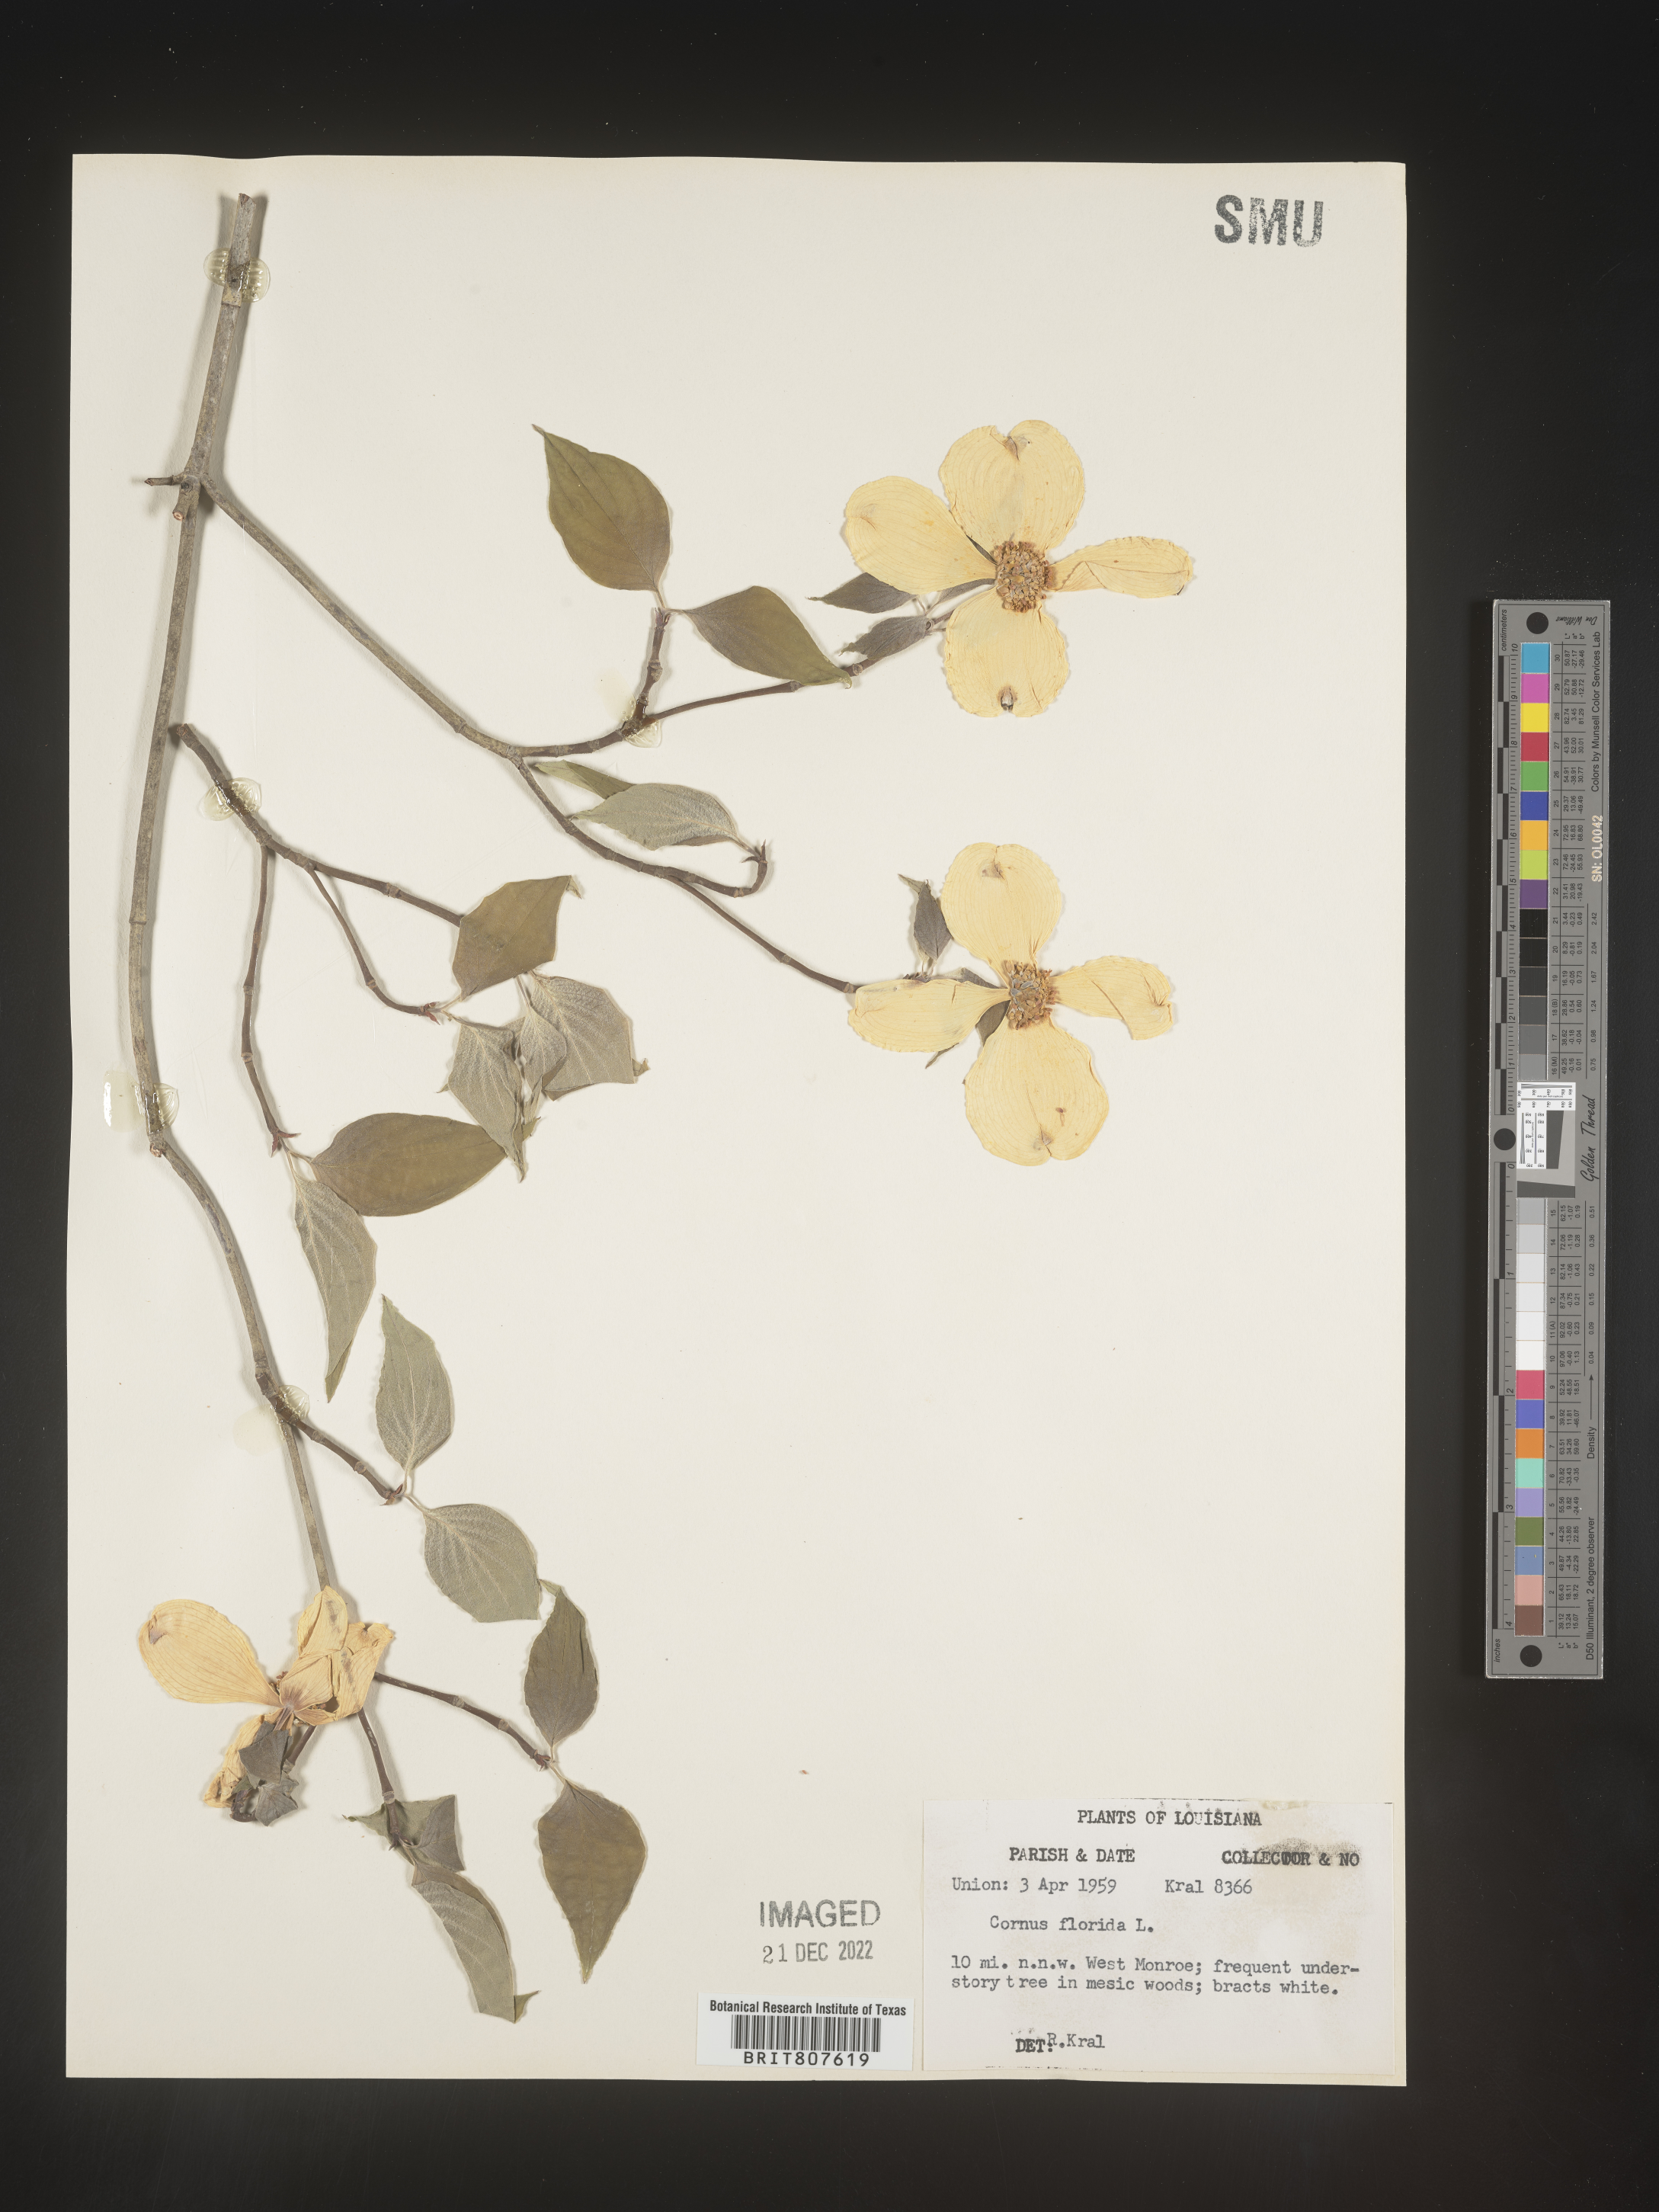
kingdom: Plantae
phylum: Tracheophyta
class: Magnoliopsida
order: Cornales
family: Cornaceae
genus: Cornus
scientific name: Cornus florida
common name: Flowering dogwood
